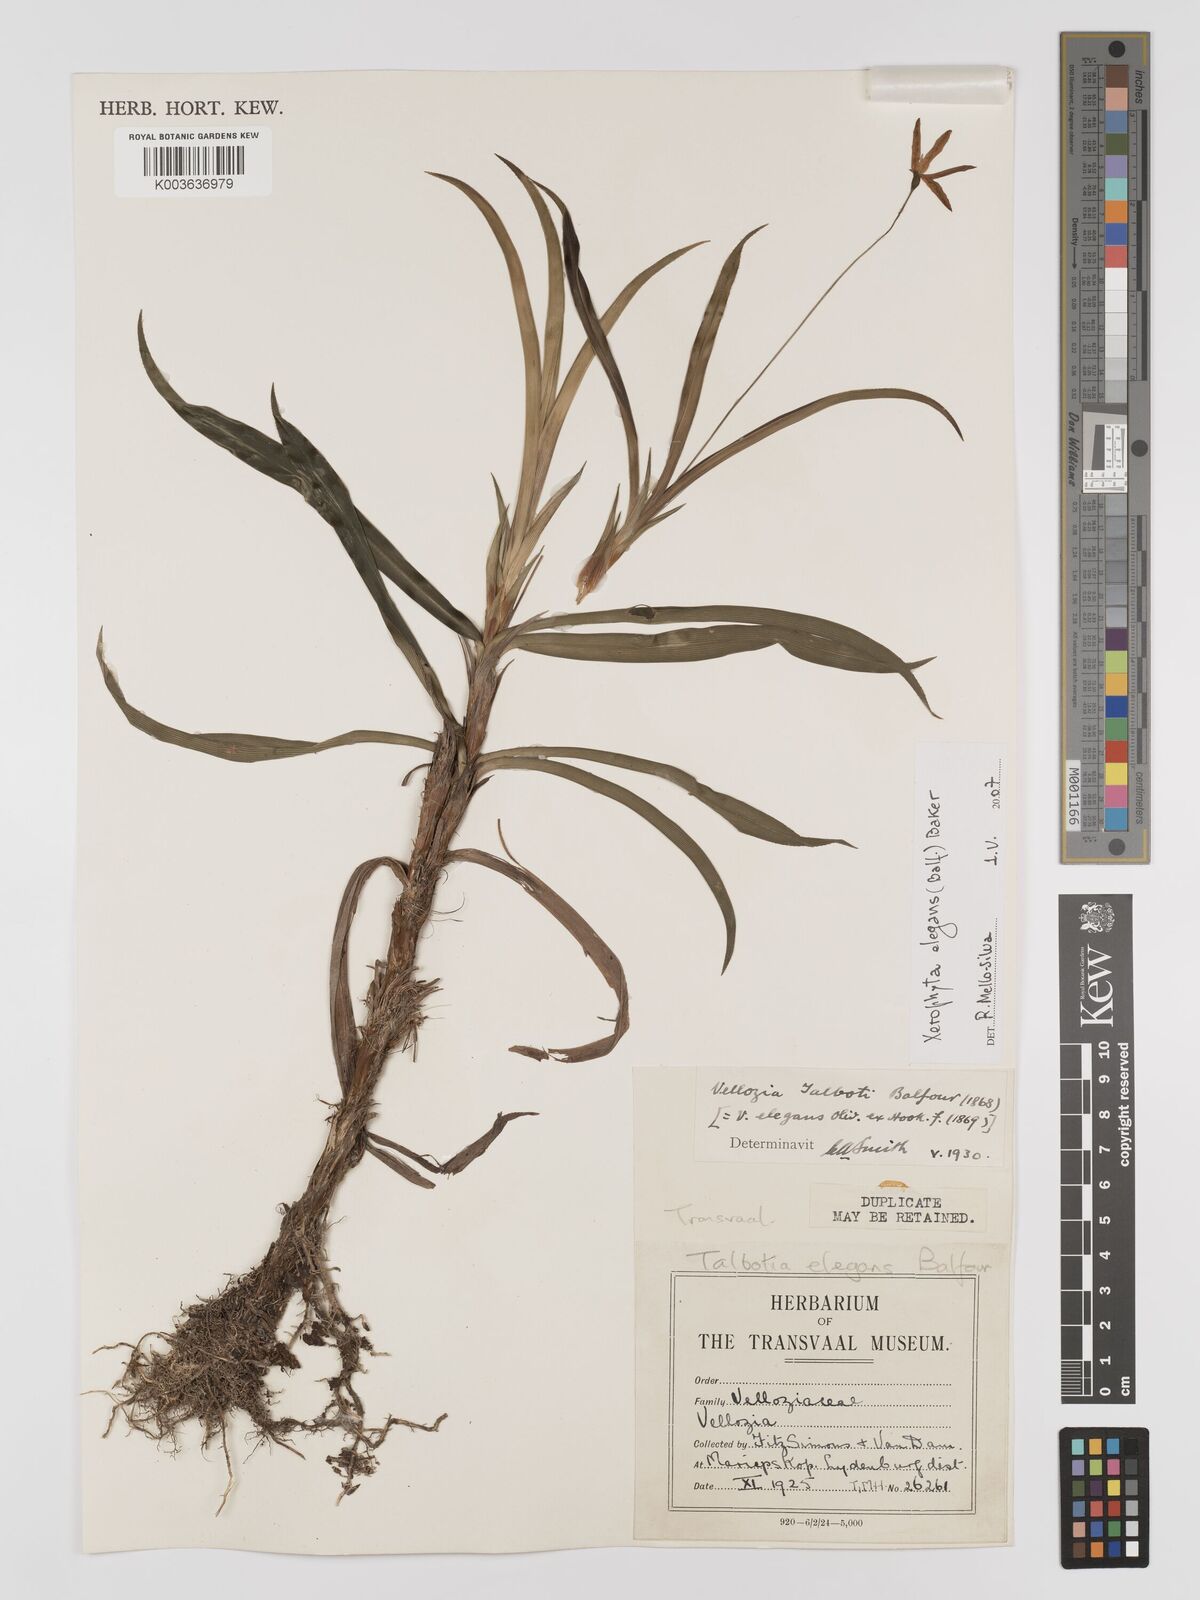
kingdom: Plantae
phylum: Tracheophyta
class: Liliopsida
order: Pandanales
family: Velloziaceae
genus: Xerophyta
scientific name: Xerophyta elegans
